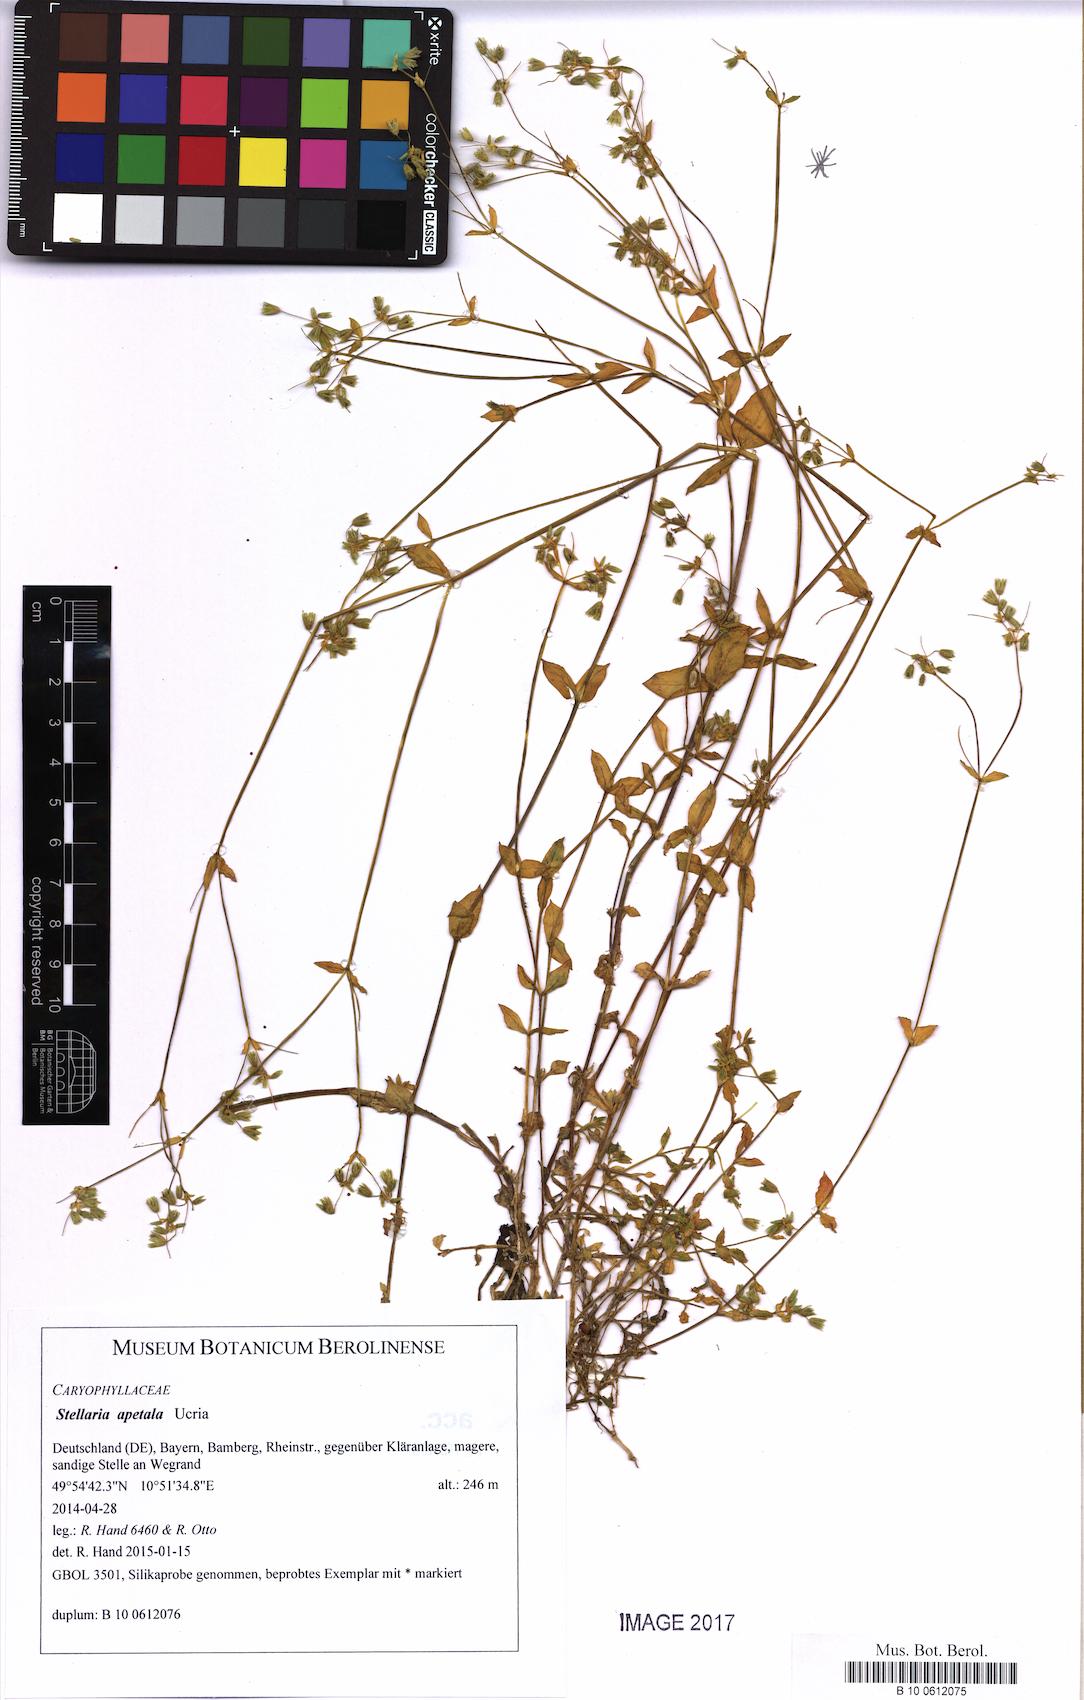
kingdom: Plantae
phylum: Tracheophyta
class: Magnoliopsida
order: Caryophyllales
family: Caryophyllaceae
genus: Stellaria
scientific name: Stellaria apetala
